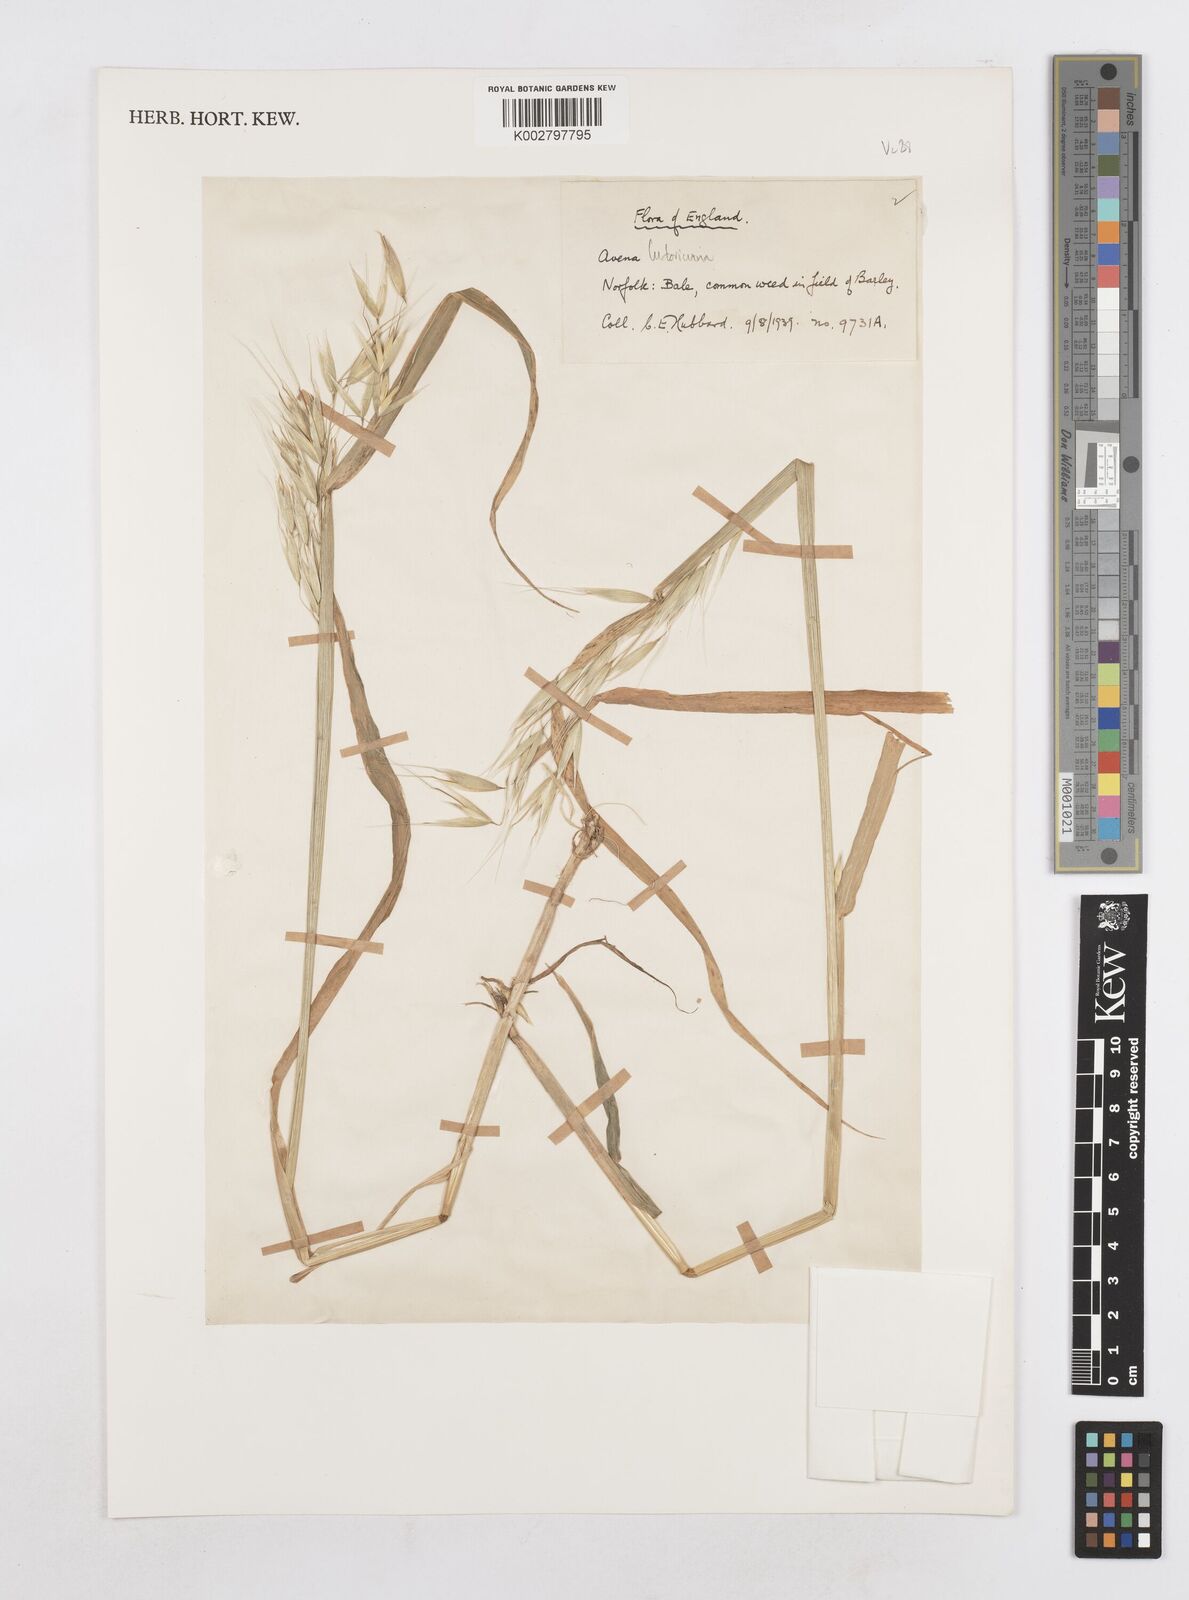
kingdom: Plantae
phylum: Tracheophyta
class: Liliopsida
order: Poales
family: Poaceae
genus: Avena
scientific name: Avena sterilis
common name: Animated oat
